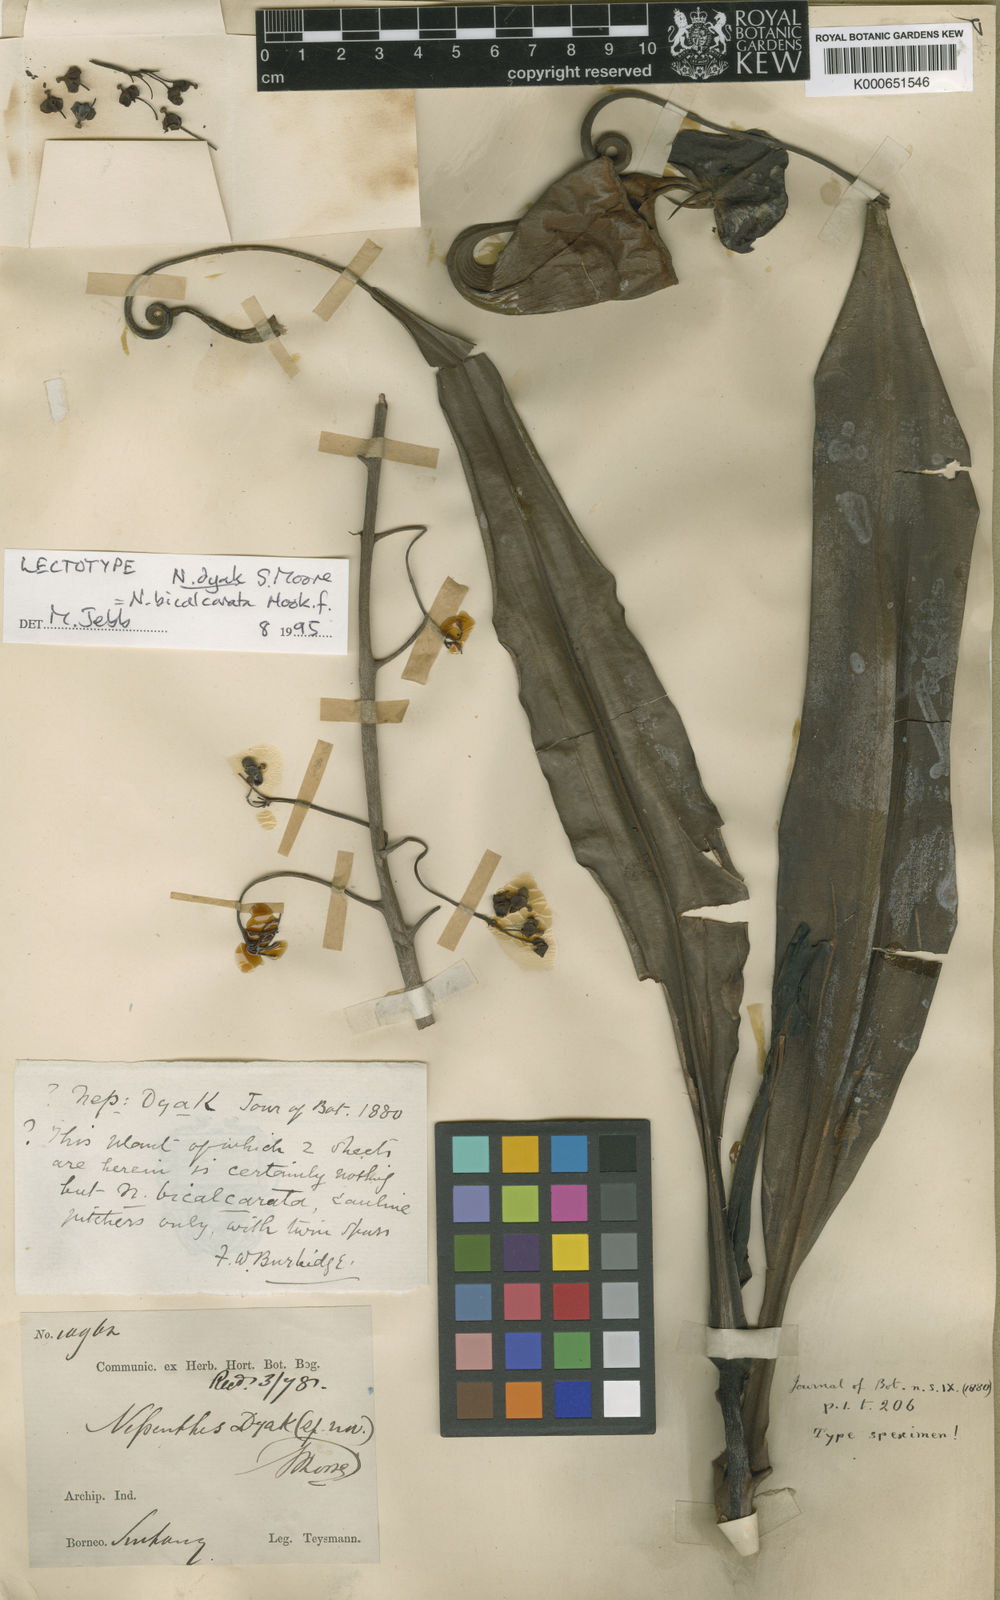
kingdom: Plantae
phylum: Tracheophyta
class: Magnoliopsida
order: Caryophyllales
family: Nepenthaceae
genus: Nepenthes
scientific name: Nepenthes bicalcarata
